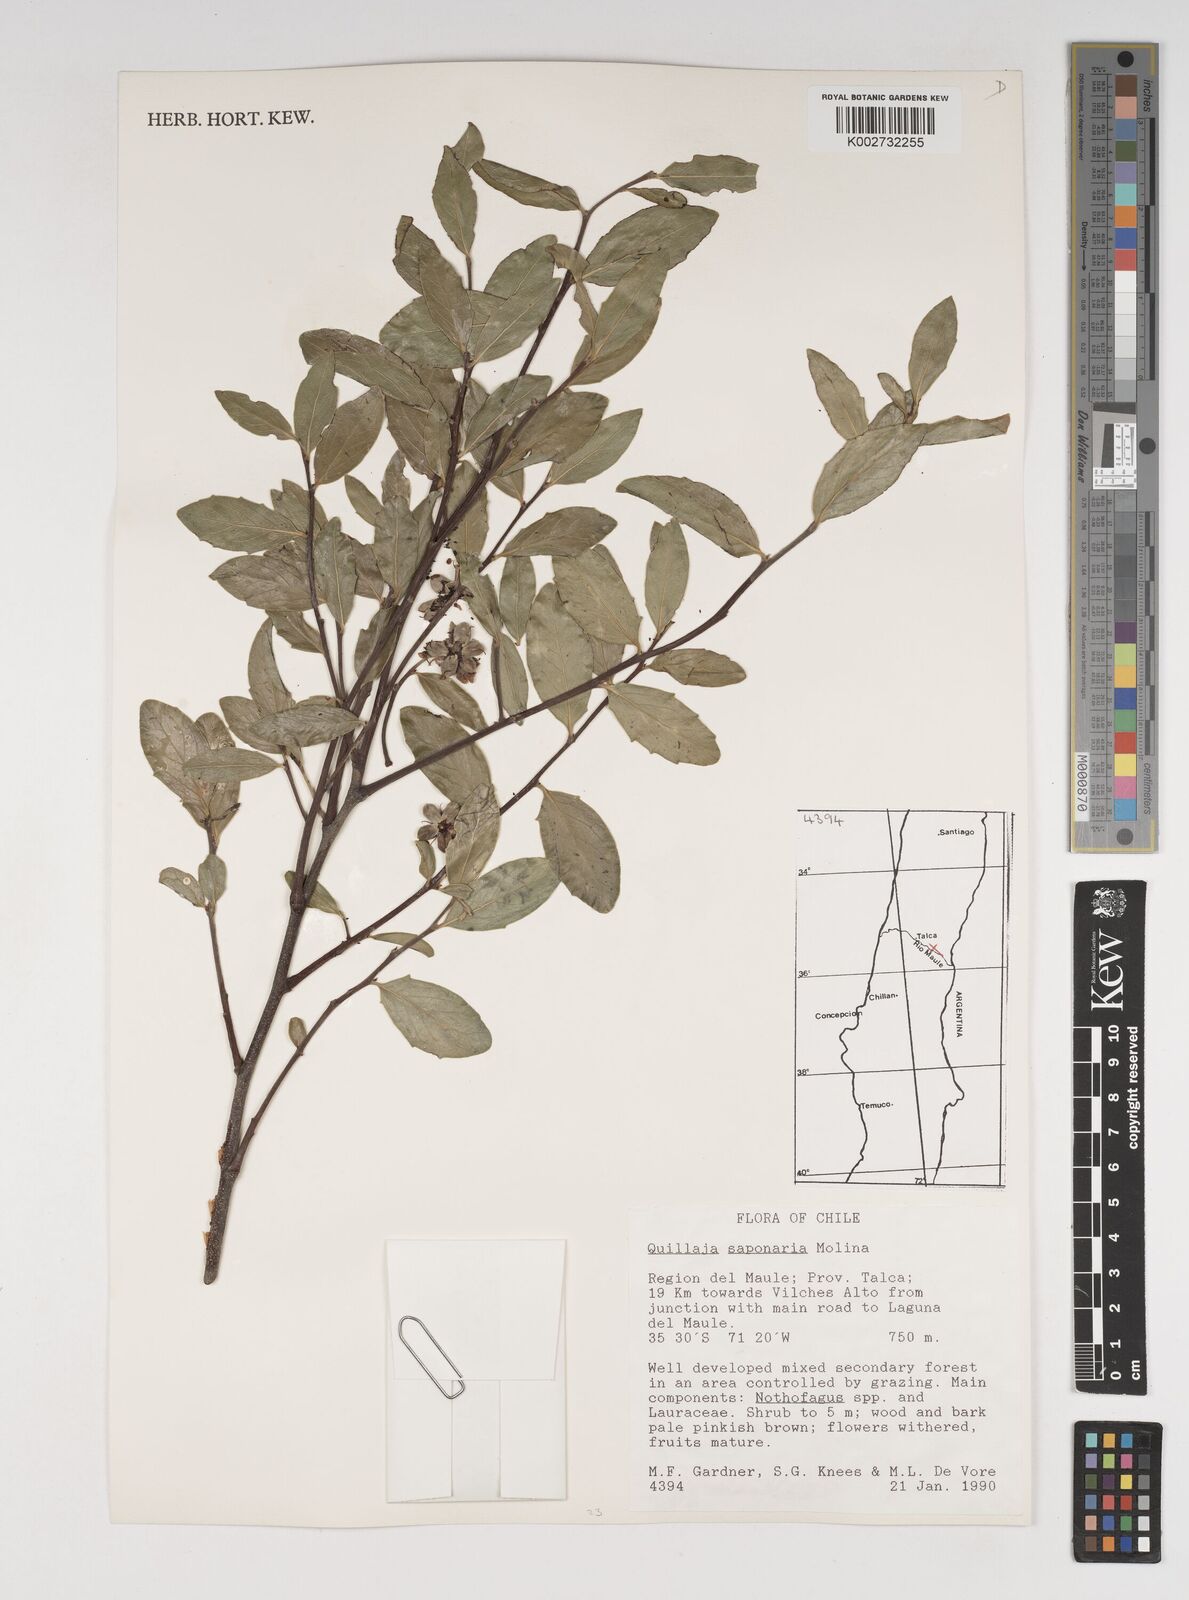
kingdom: Plantae
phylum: Tracheophyta
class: Magnoliopsida
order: Fabales
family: Quillajaceae
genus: Quillaja
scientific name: Quillaja saponaria
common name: Murillo's-bark
